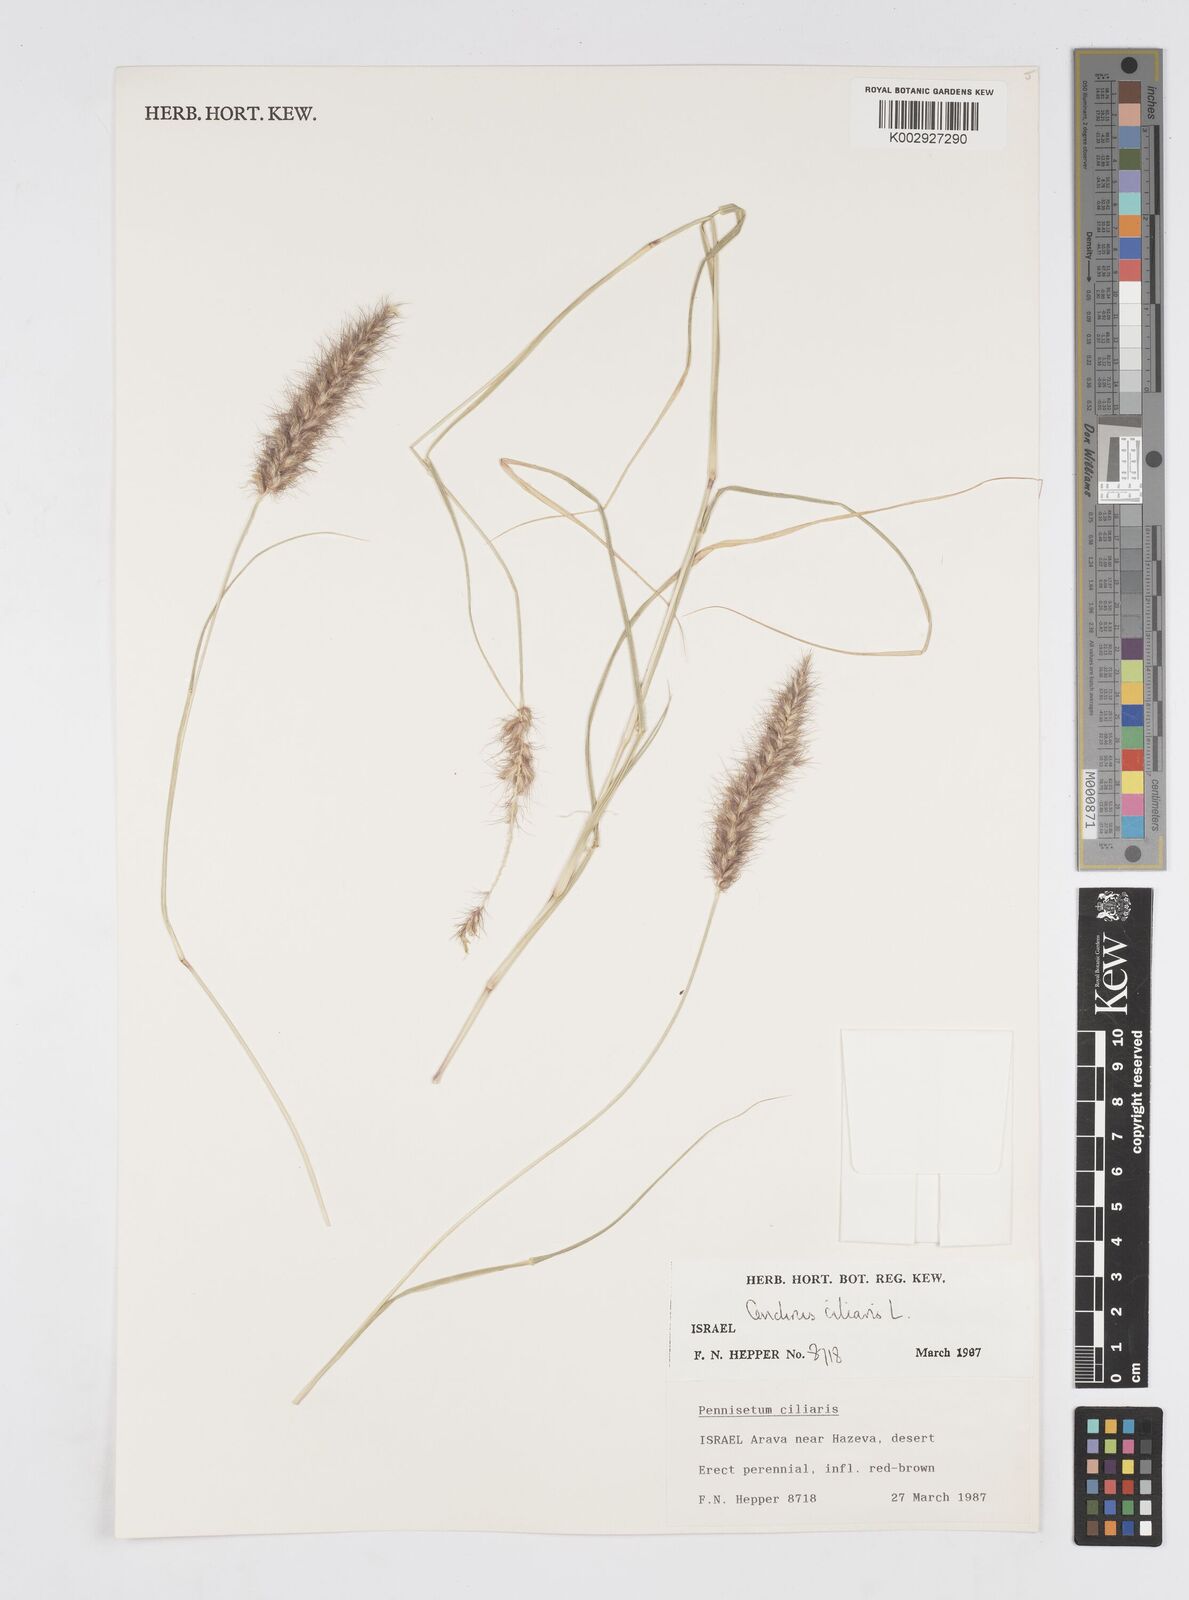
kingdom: Plantae
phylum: Tracheophyta
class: Liliopsida
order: Poales
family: Poaceae
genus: Cenchrus
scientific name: Cenchrus ciliaris
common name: Buffelgrass
